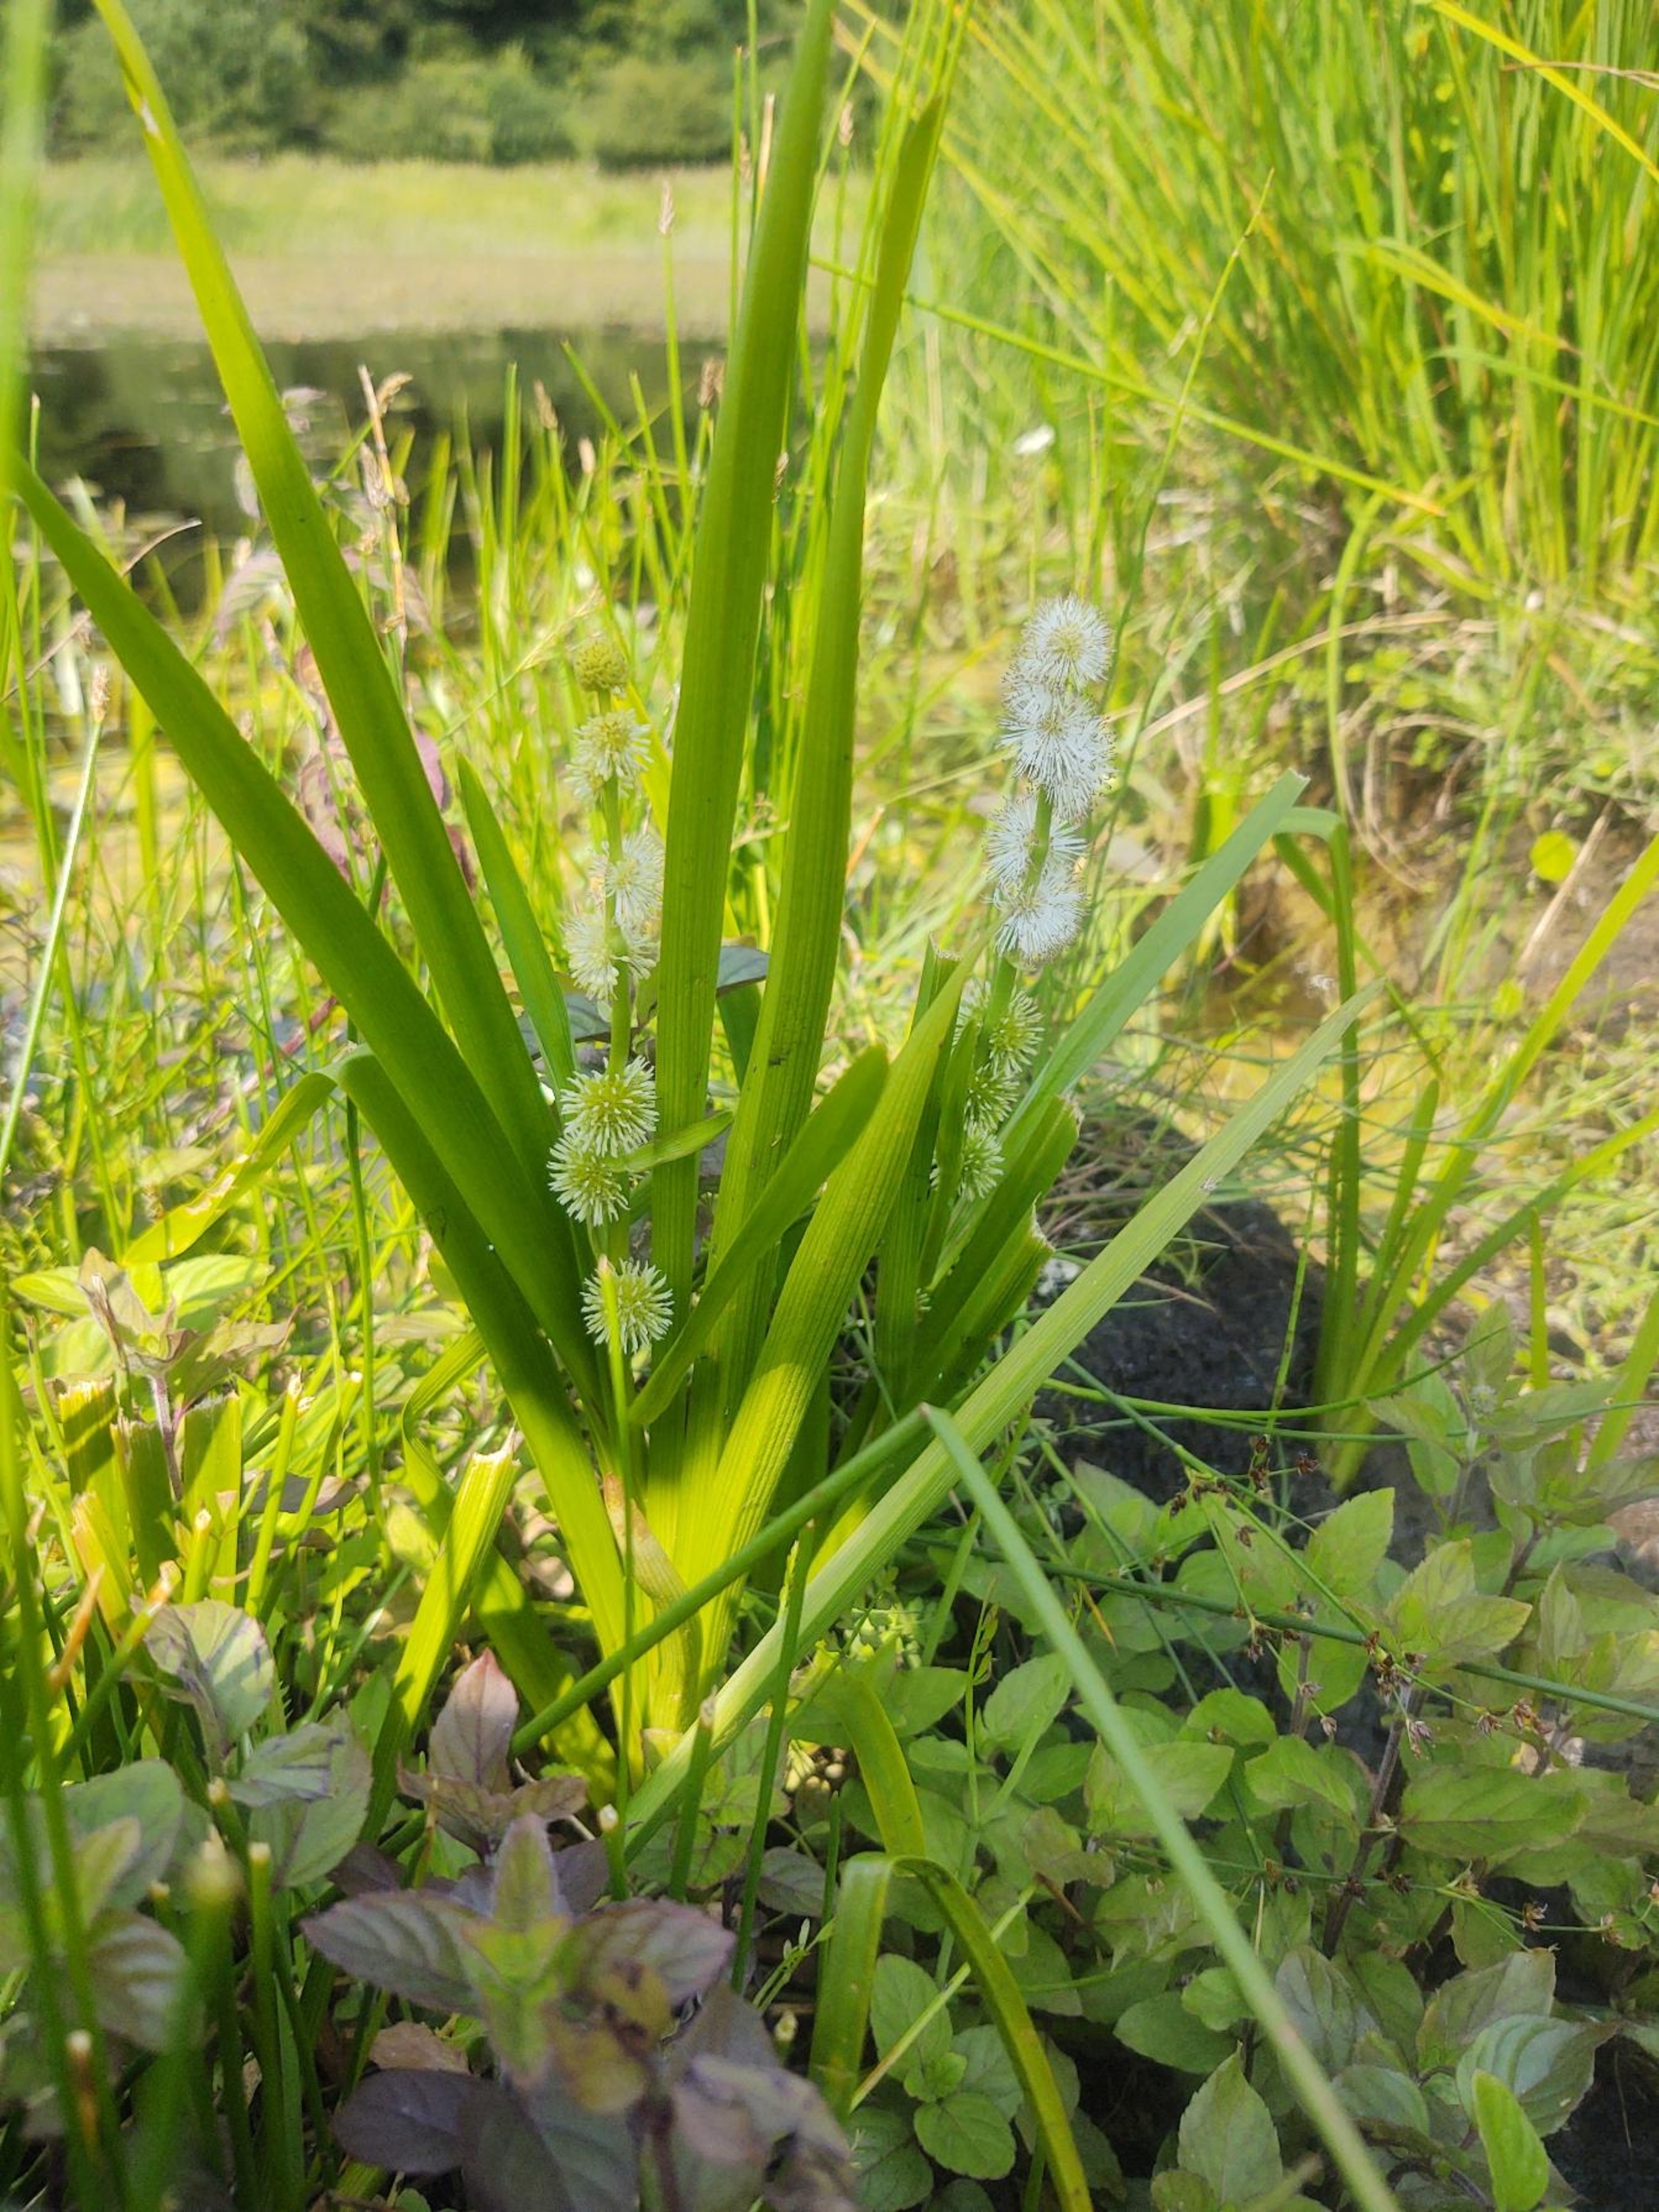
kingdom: Plantae
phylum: Tracheophyta
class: Liliopsida
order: Poales
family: Typhaceae
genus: Sparganium
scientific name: Sparganium emersum
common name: Enkelt pindsvineknop
